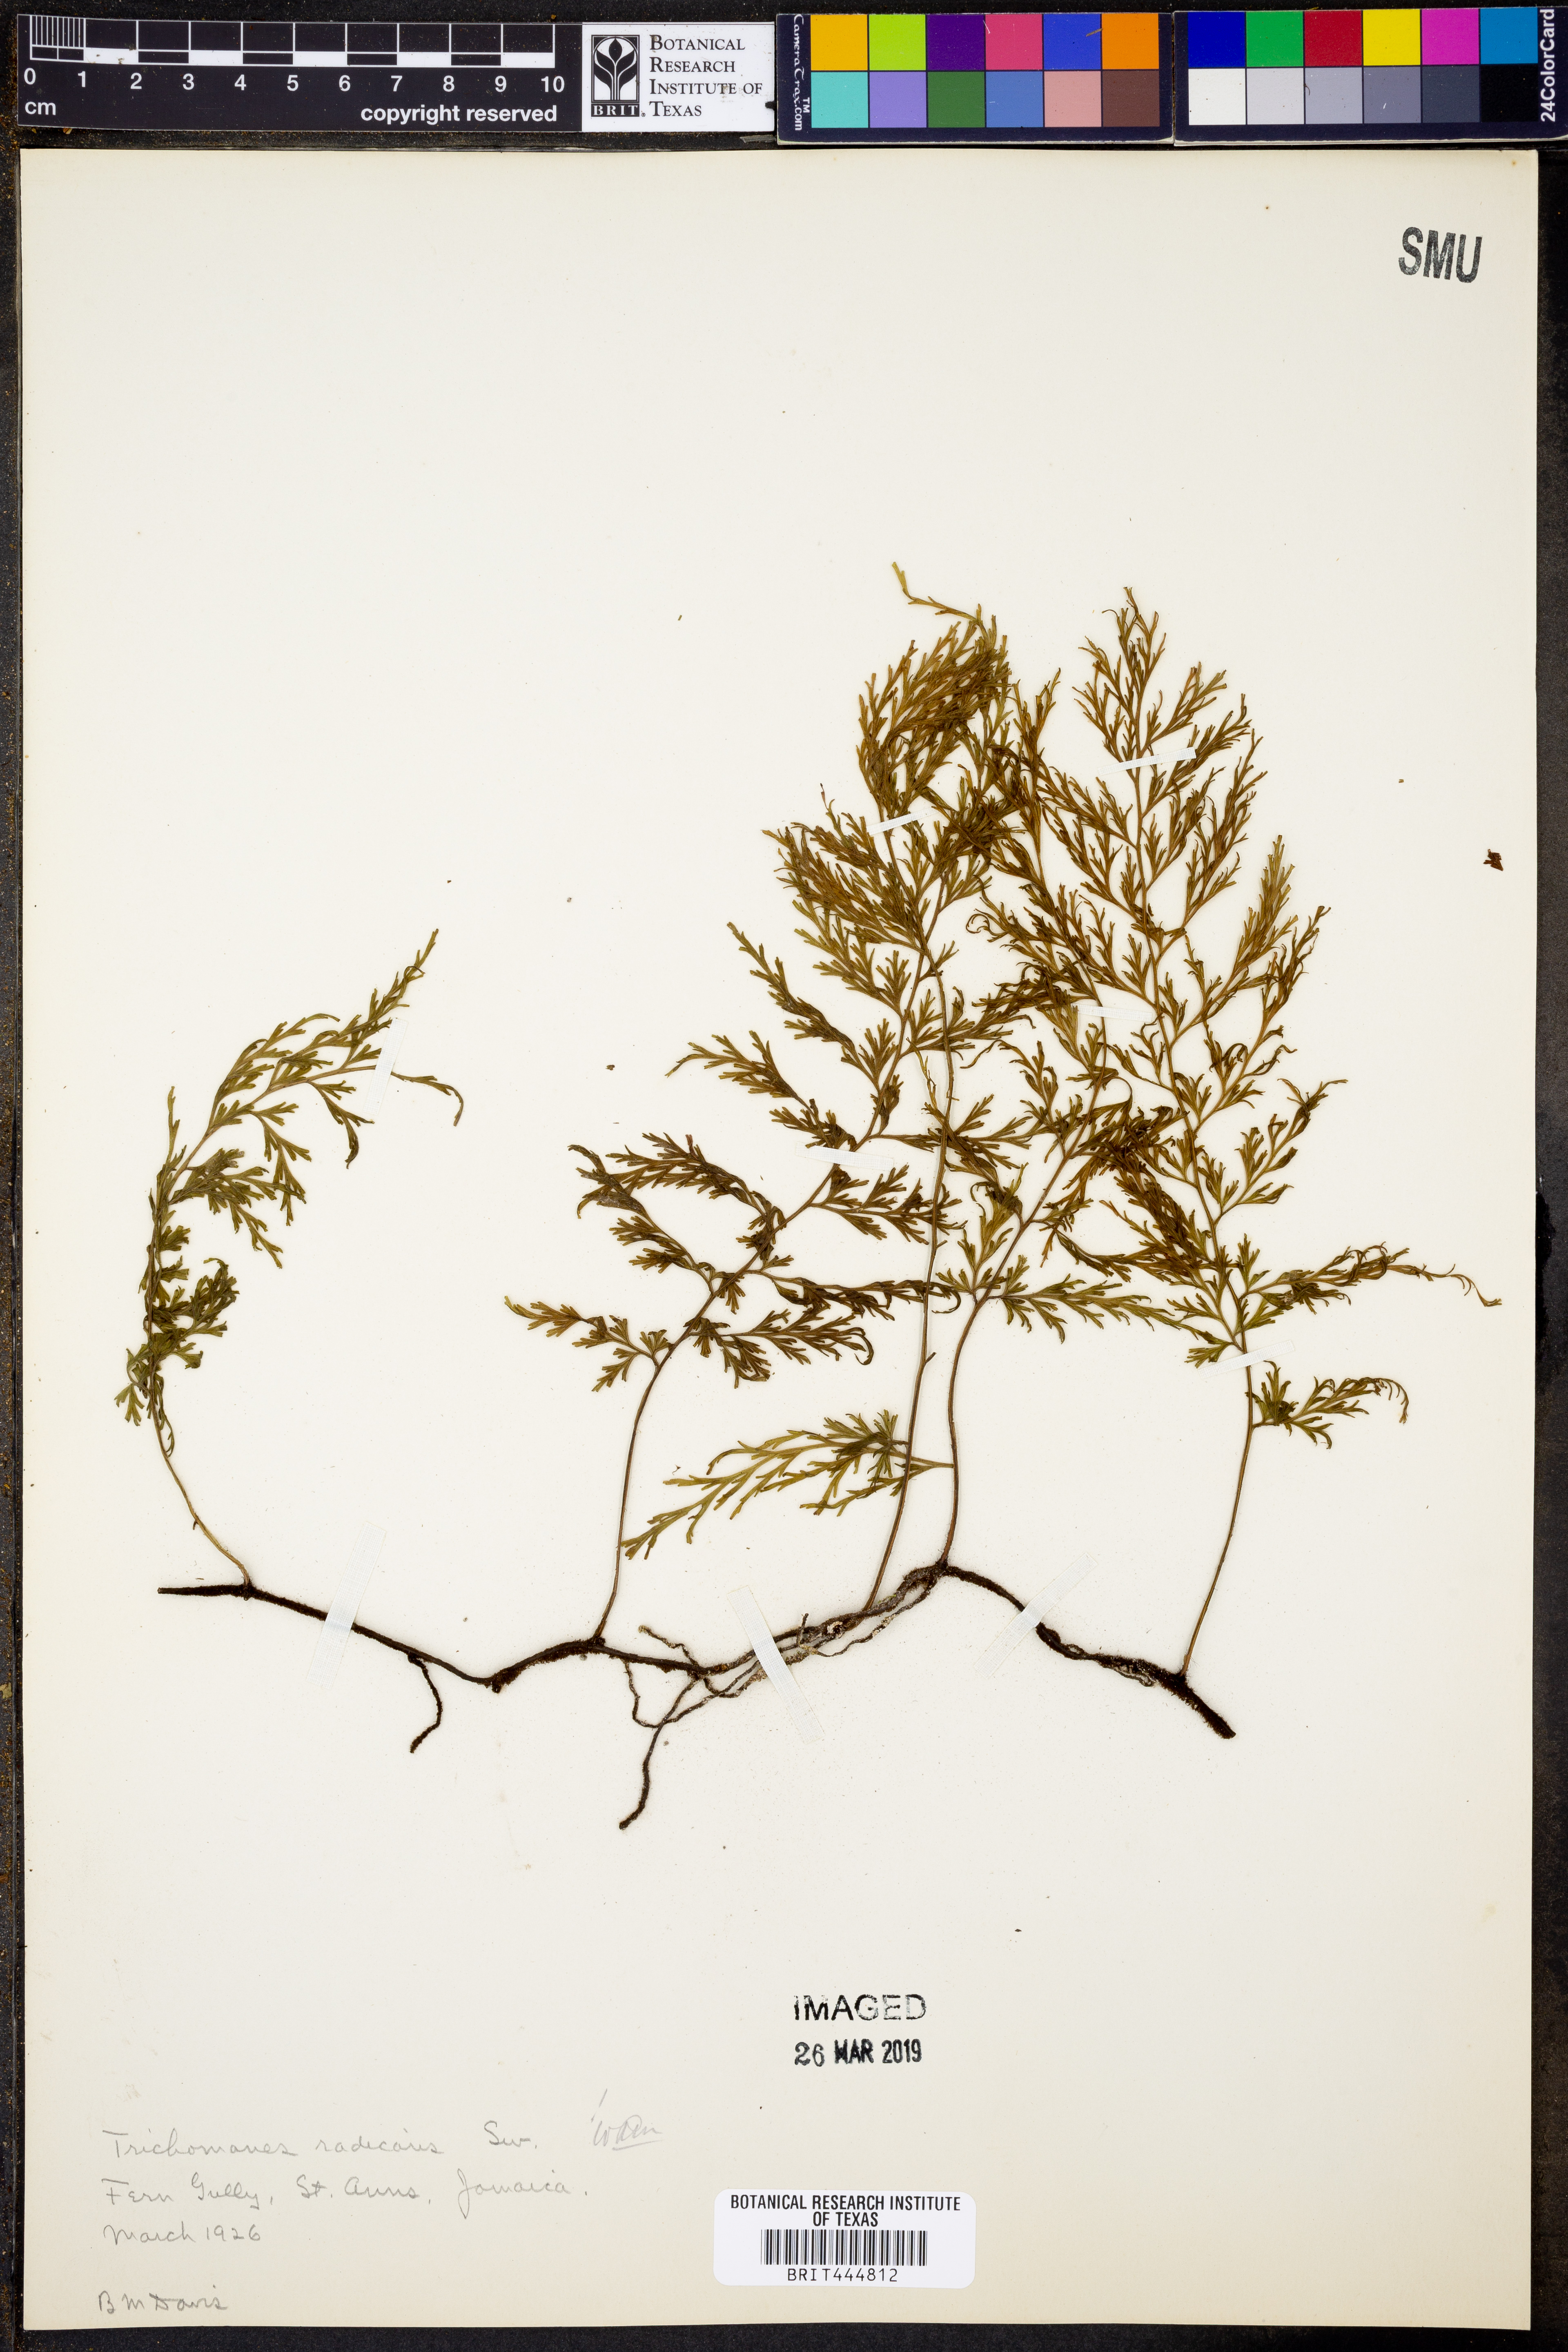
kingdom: Plantae
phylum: Tracheophyta
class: Polypodiopsida
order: Hymenophyllales
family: Hymenophyllaceae
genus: Vandenboschia
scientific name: Vandenboschia radicans
